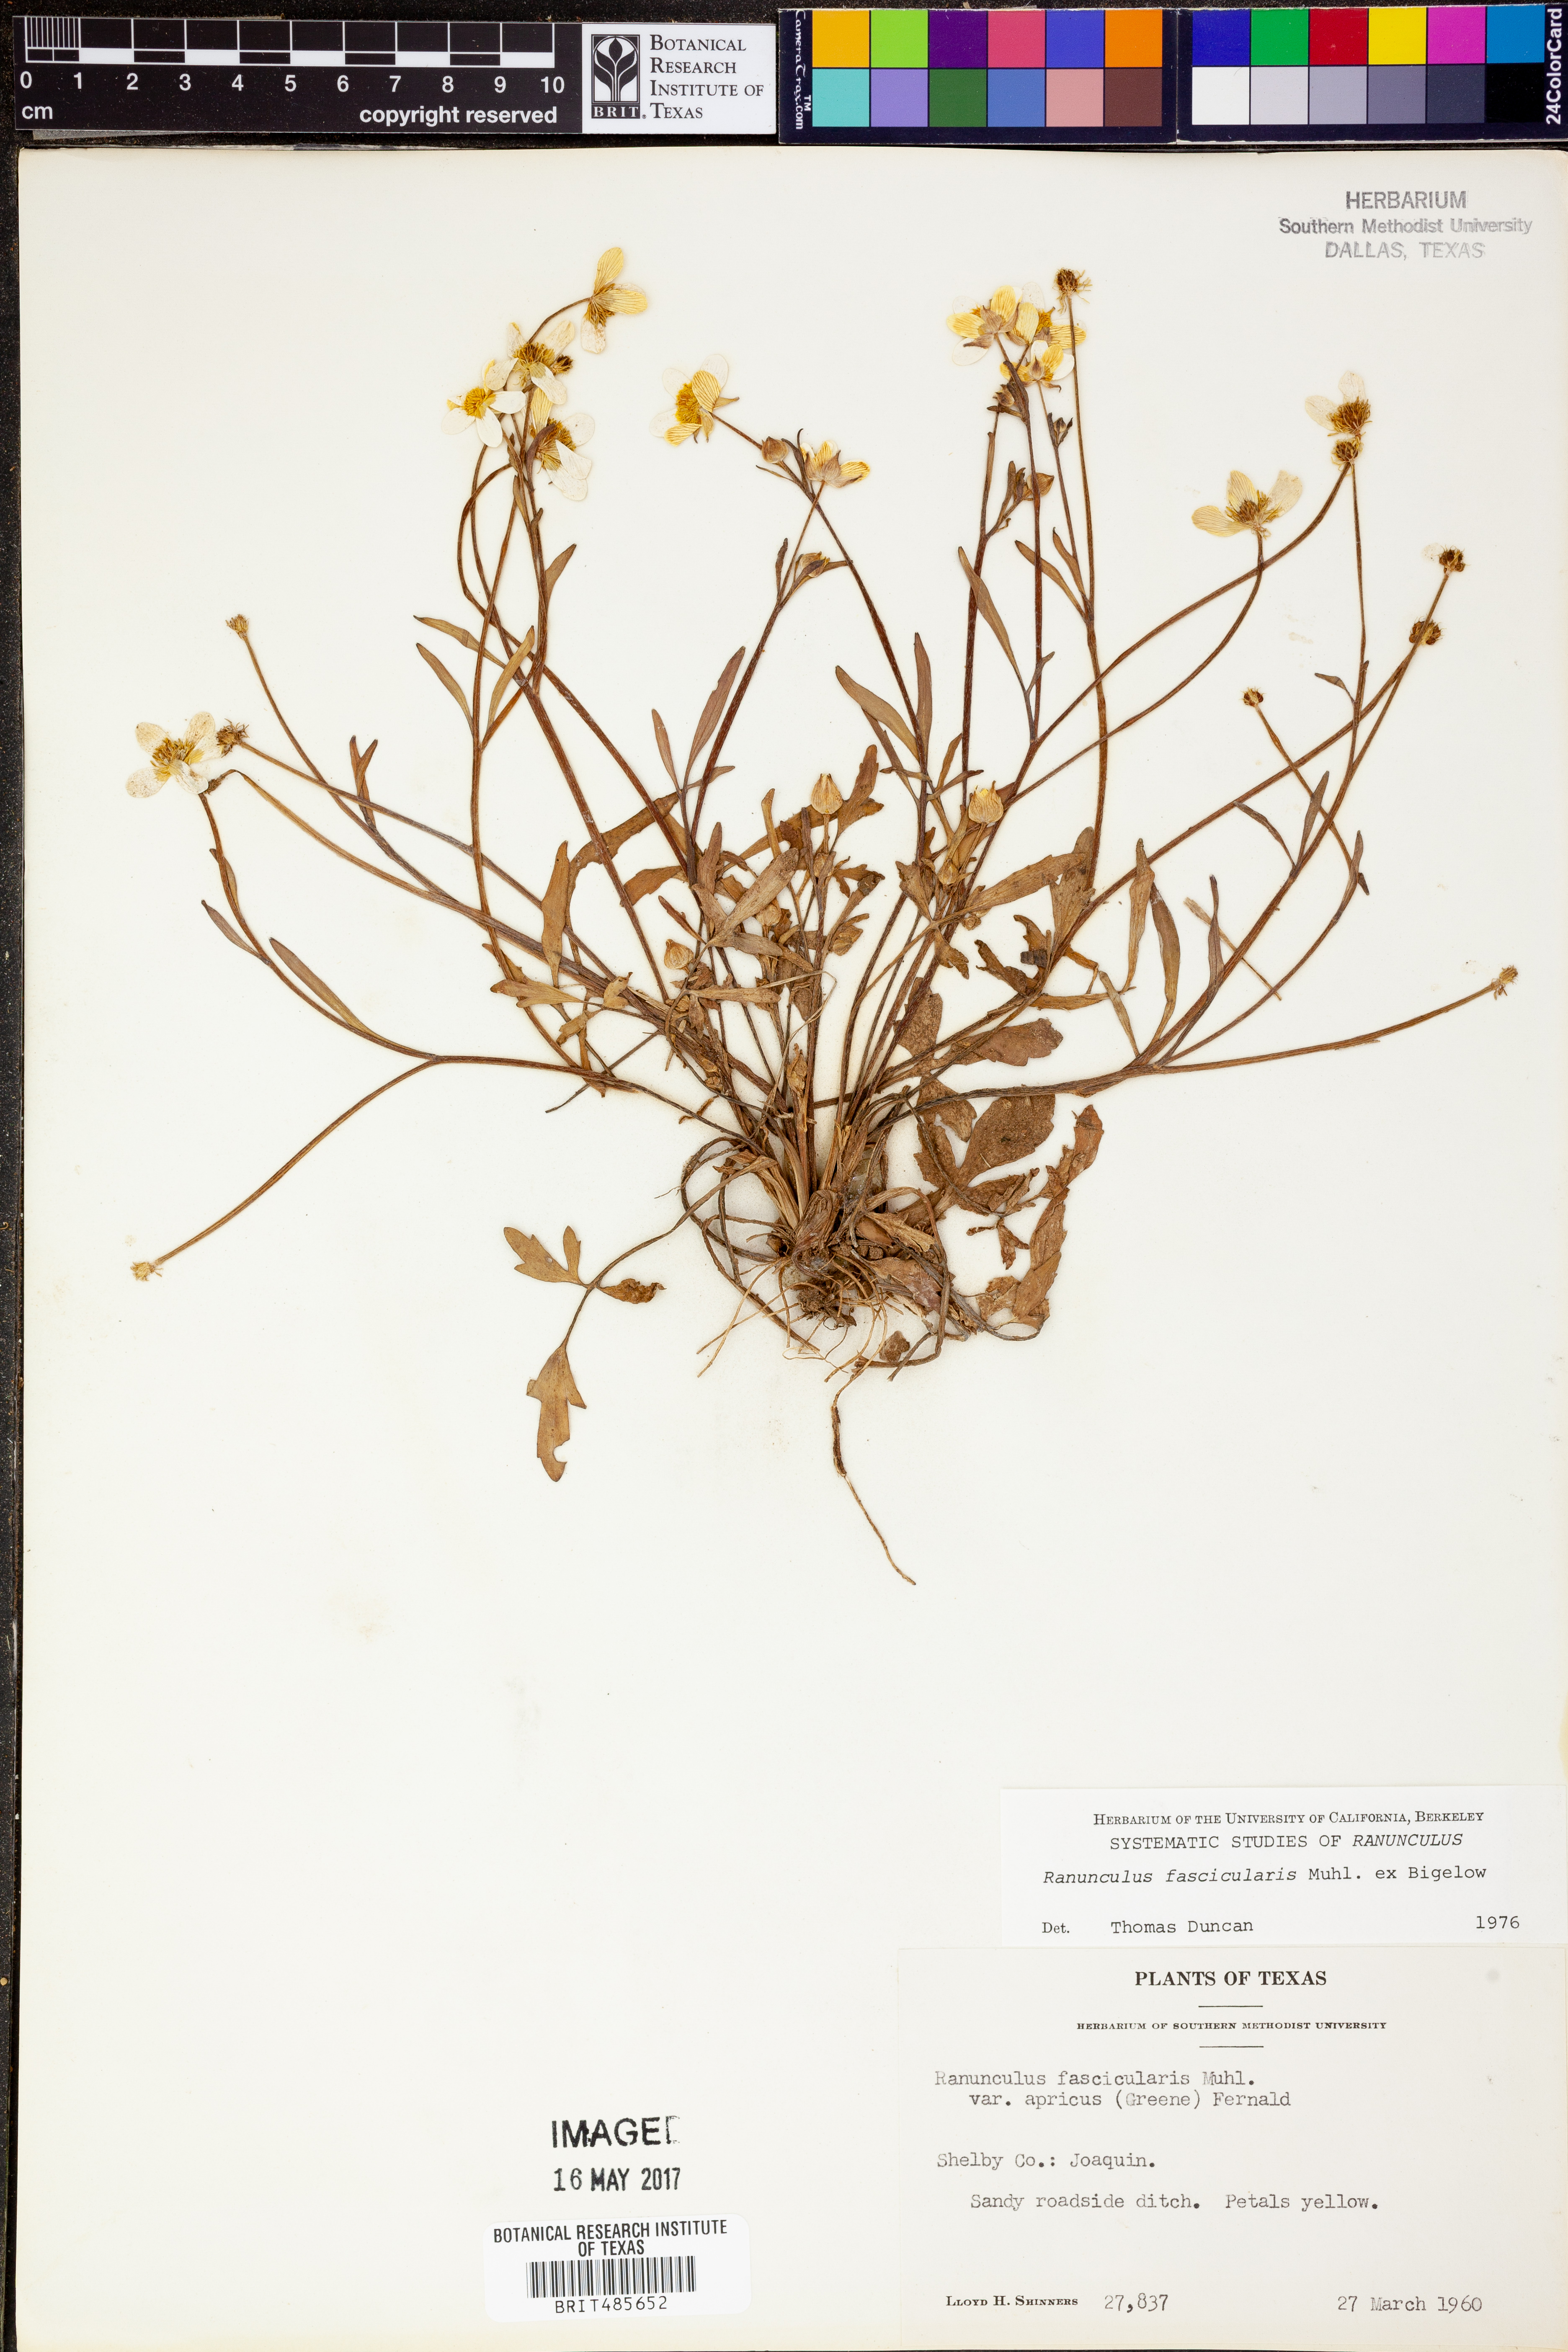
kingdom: Plantae
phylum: Tracheophyta
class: Magnoliopsida
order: Ranunculales
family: Ranunculaceae
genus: Ranunculus
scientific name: Ranunculus fascicularis
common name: Early buttercup
